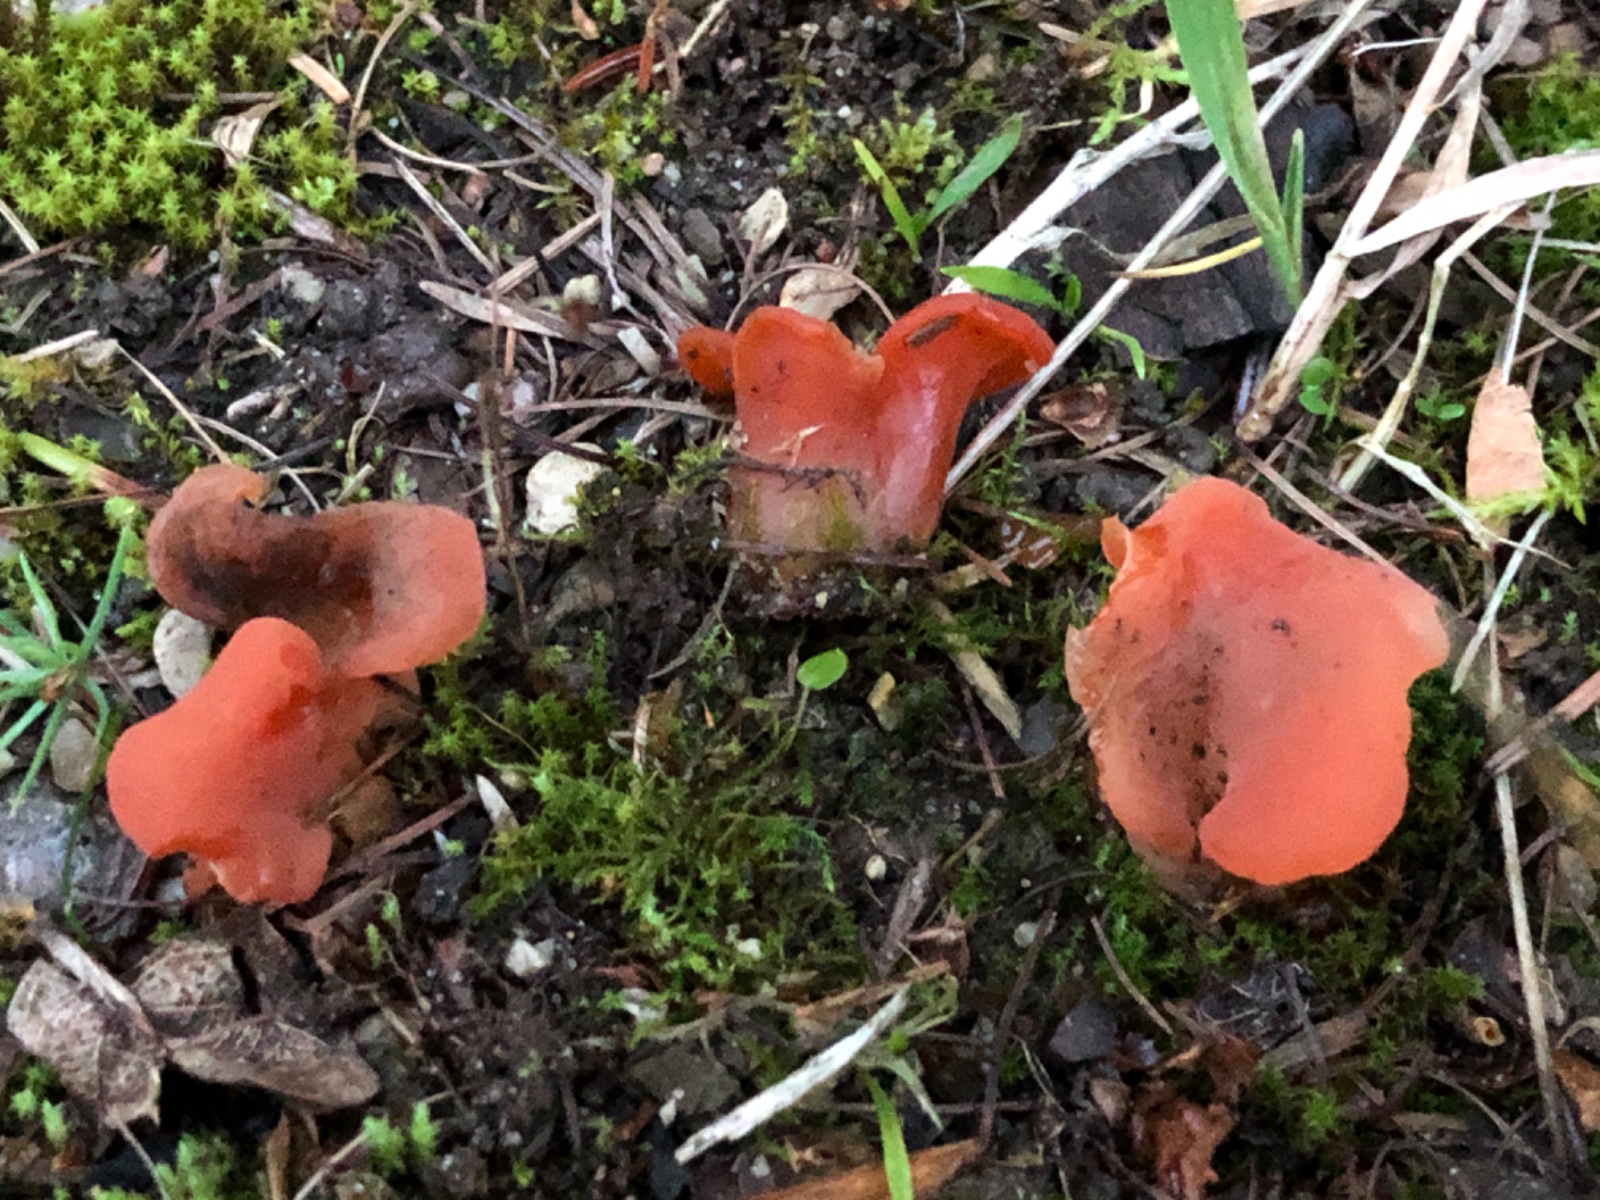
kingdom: Fungi
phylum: Basidiomycota
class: Agaricomycetes
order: Auriculariales
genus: Guepinia
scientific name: Guepinia helvelloides
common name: bævretunge
